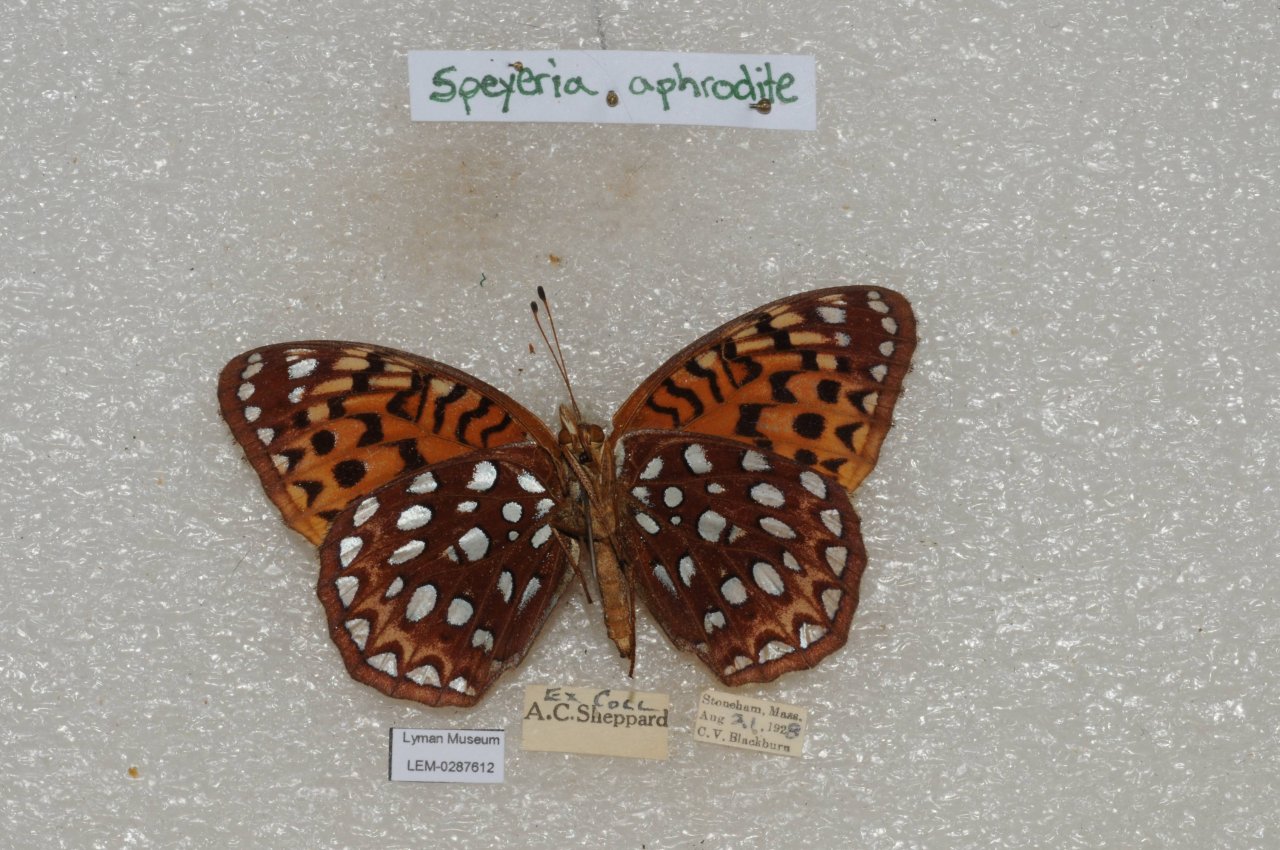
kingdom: Animalia
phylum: Arthropoda
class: Insecta
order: Lepidoptera
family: Nymphalidae
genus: Speyeria
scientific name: Speyeria aphrodite
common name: Aphrodite Fritillary
